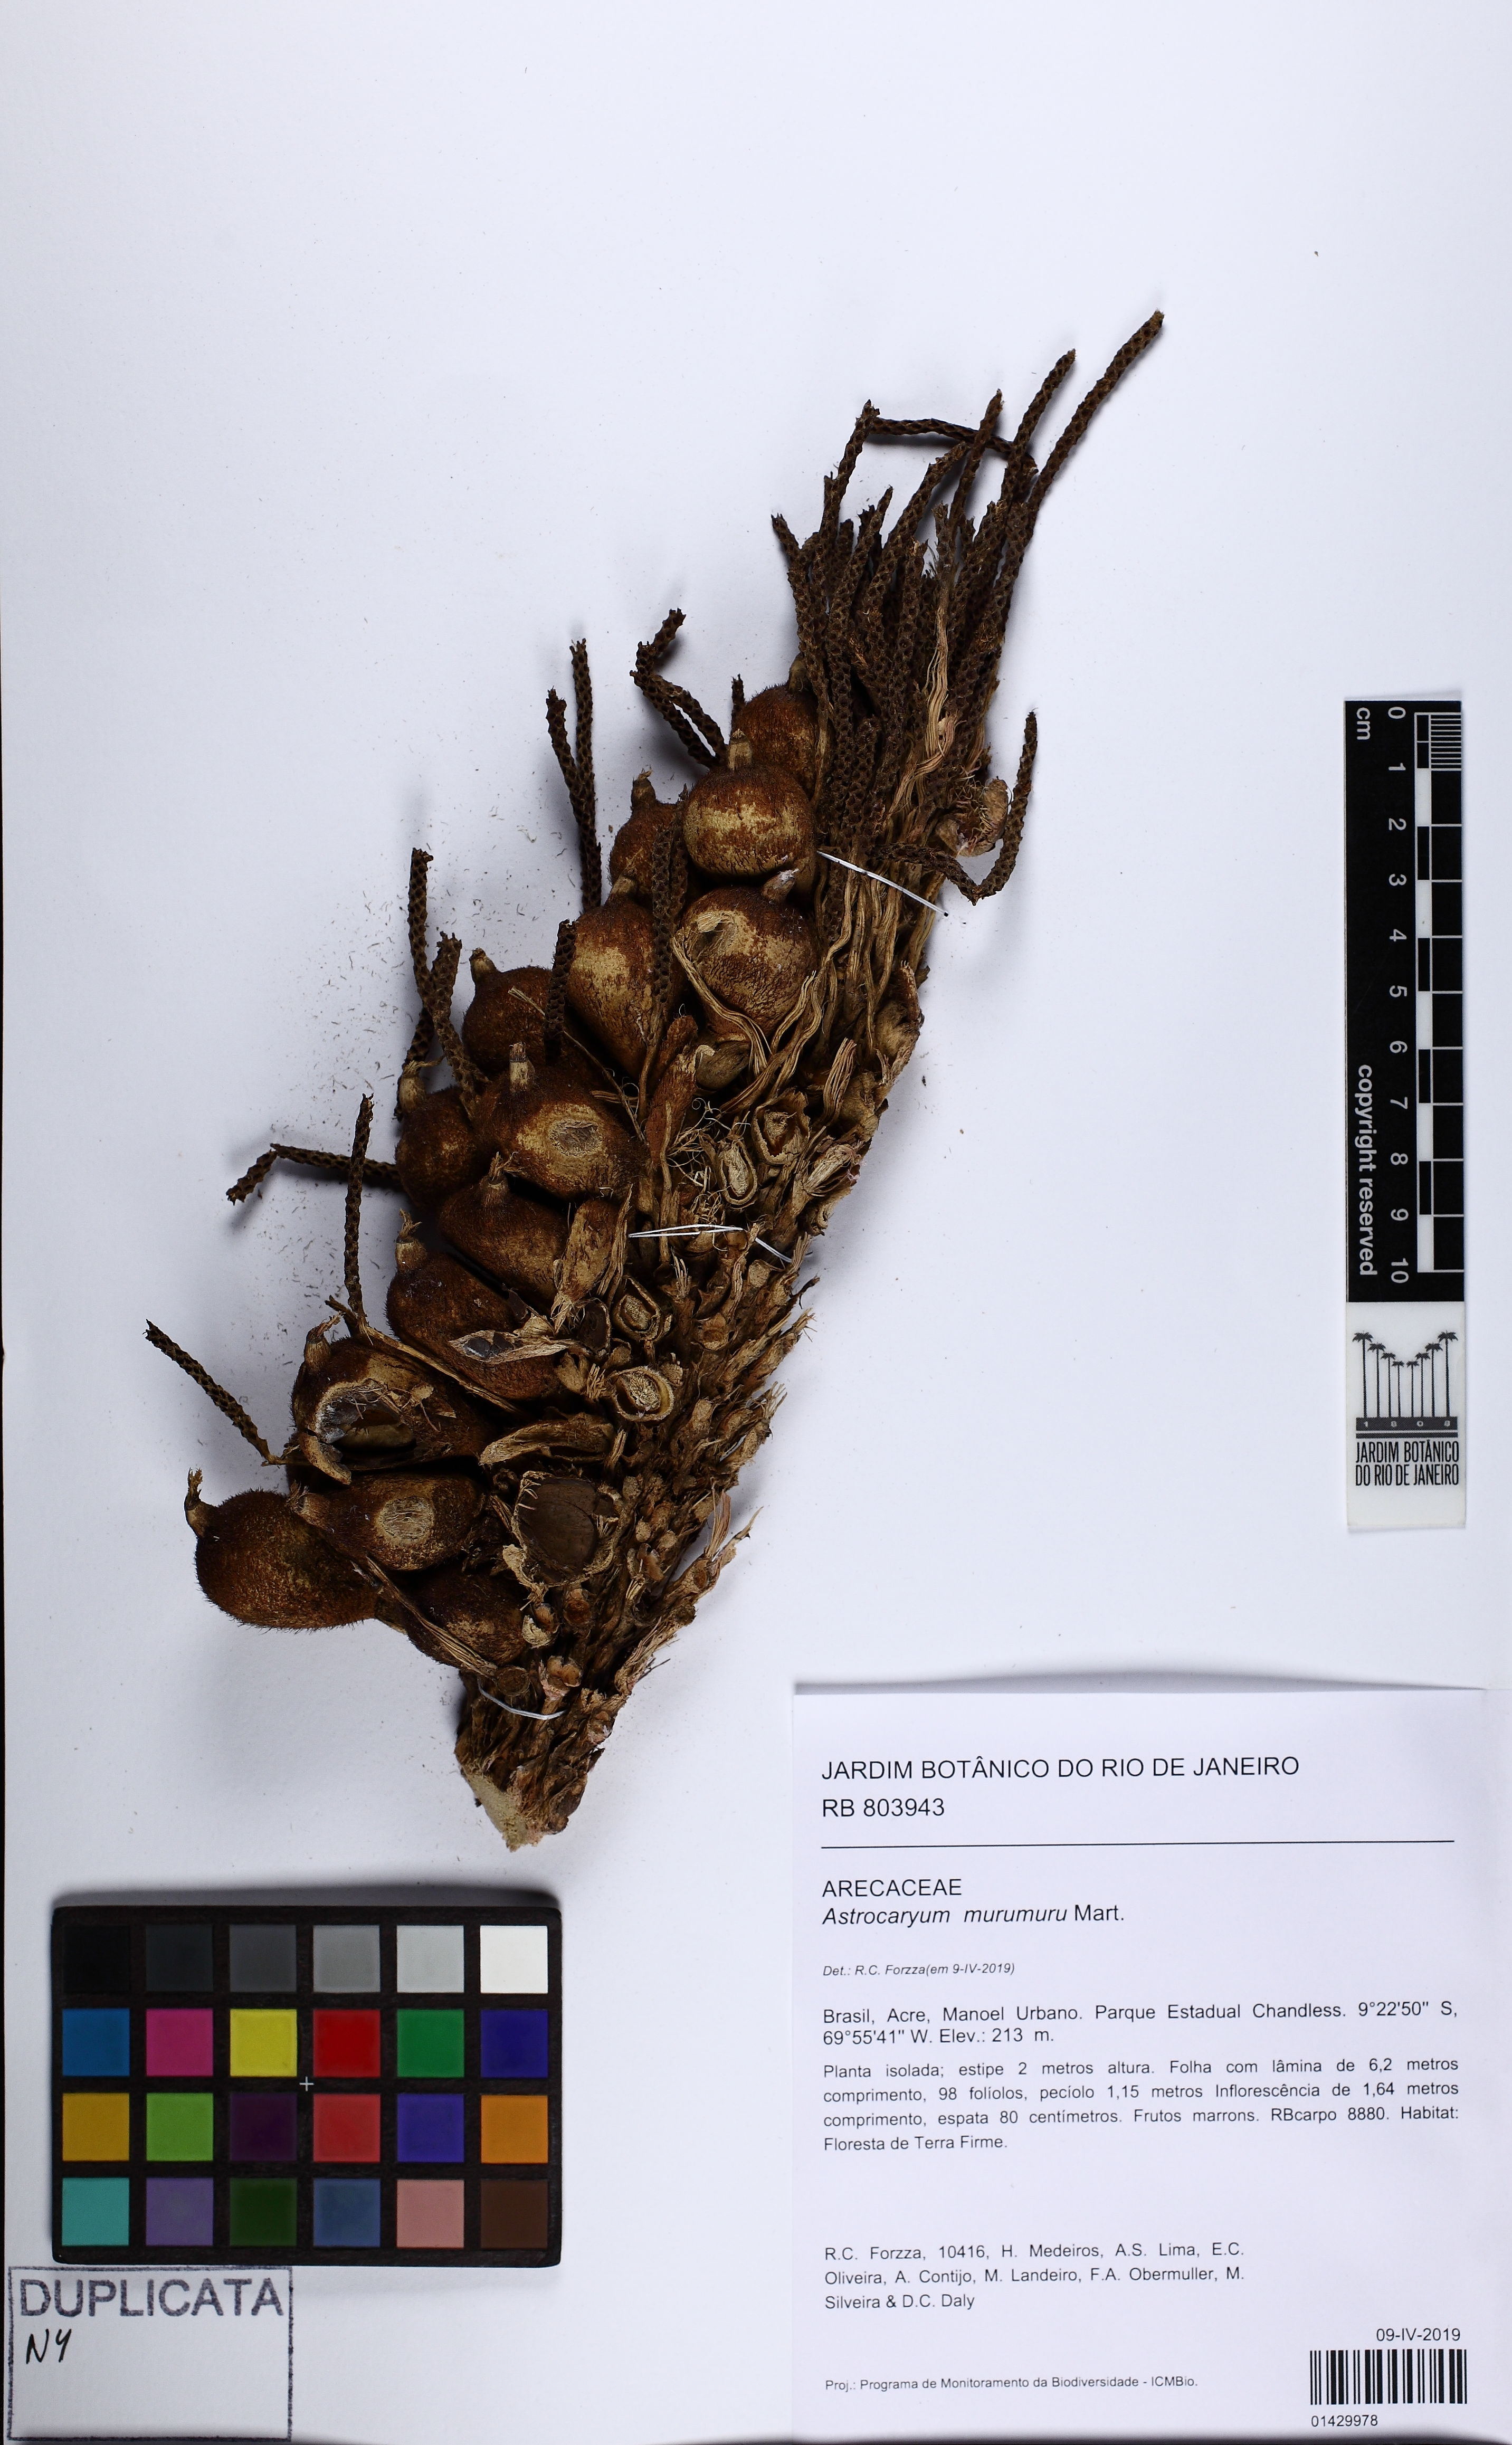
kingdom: Plantae
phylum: Tracheophyta
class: Liliopsida
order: Arecales
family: Arecaceae
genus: Astrocaryum
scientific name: Astrocaryum murumuru
